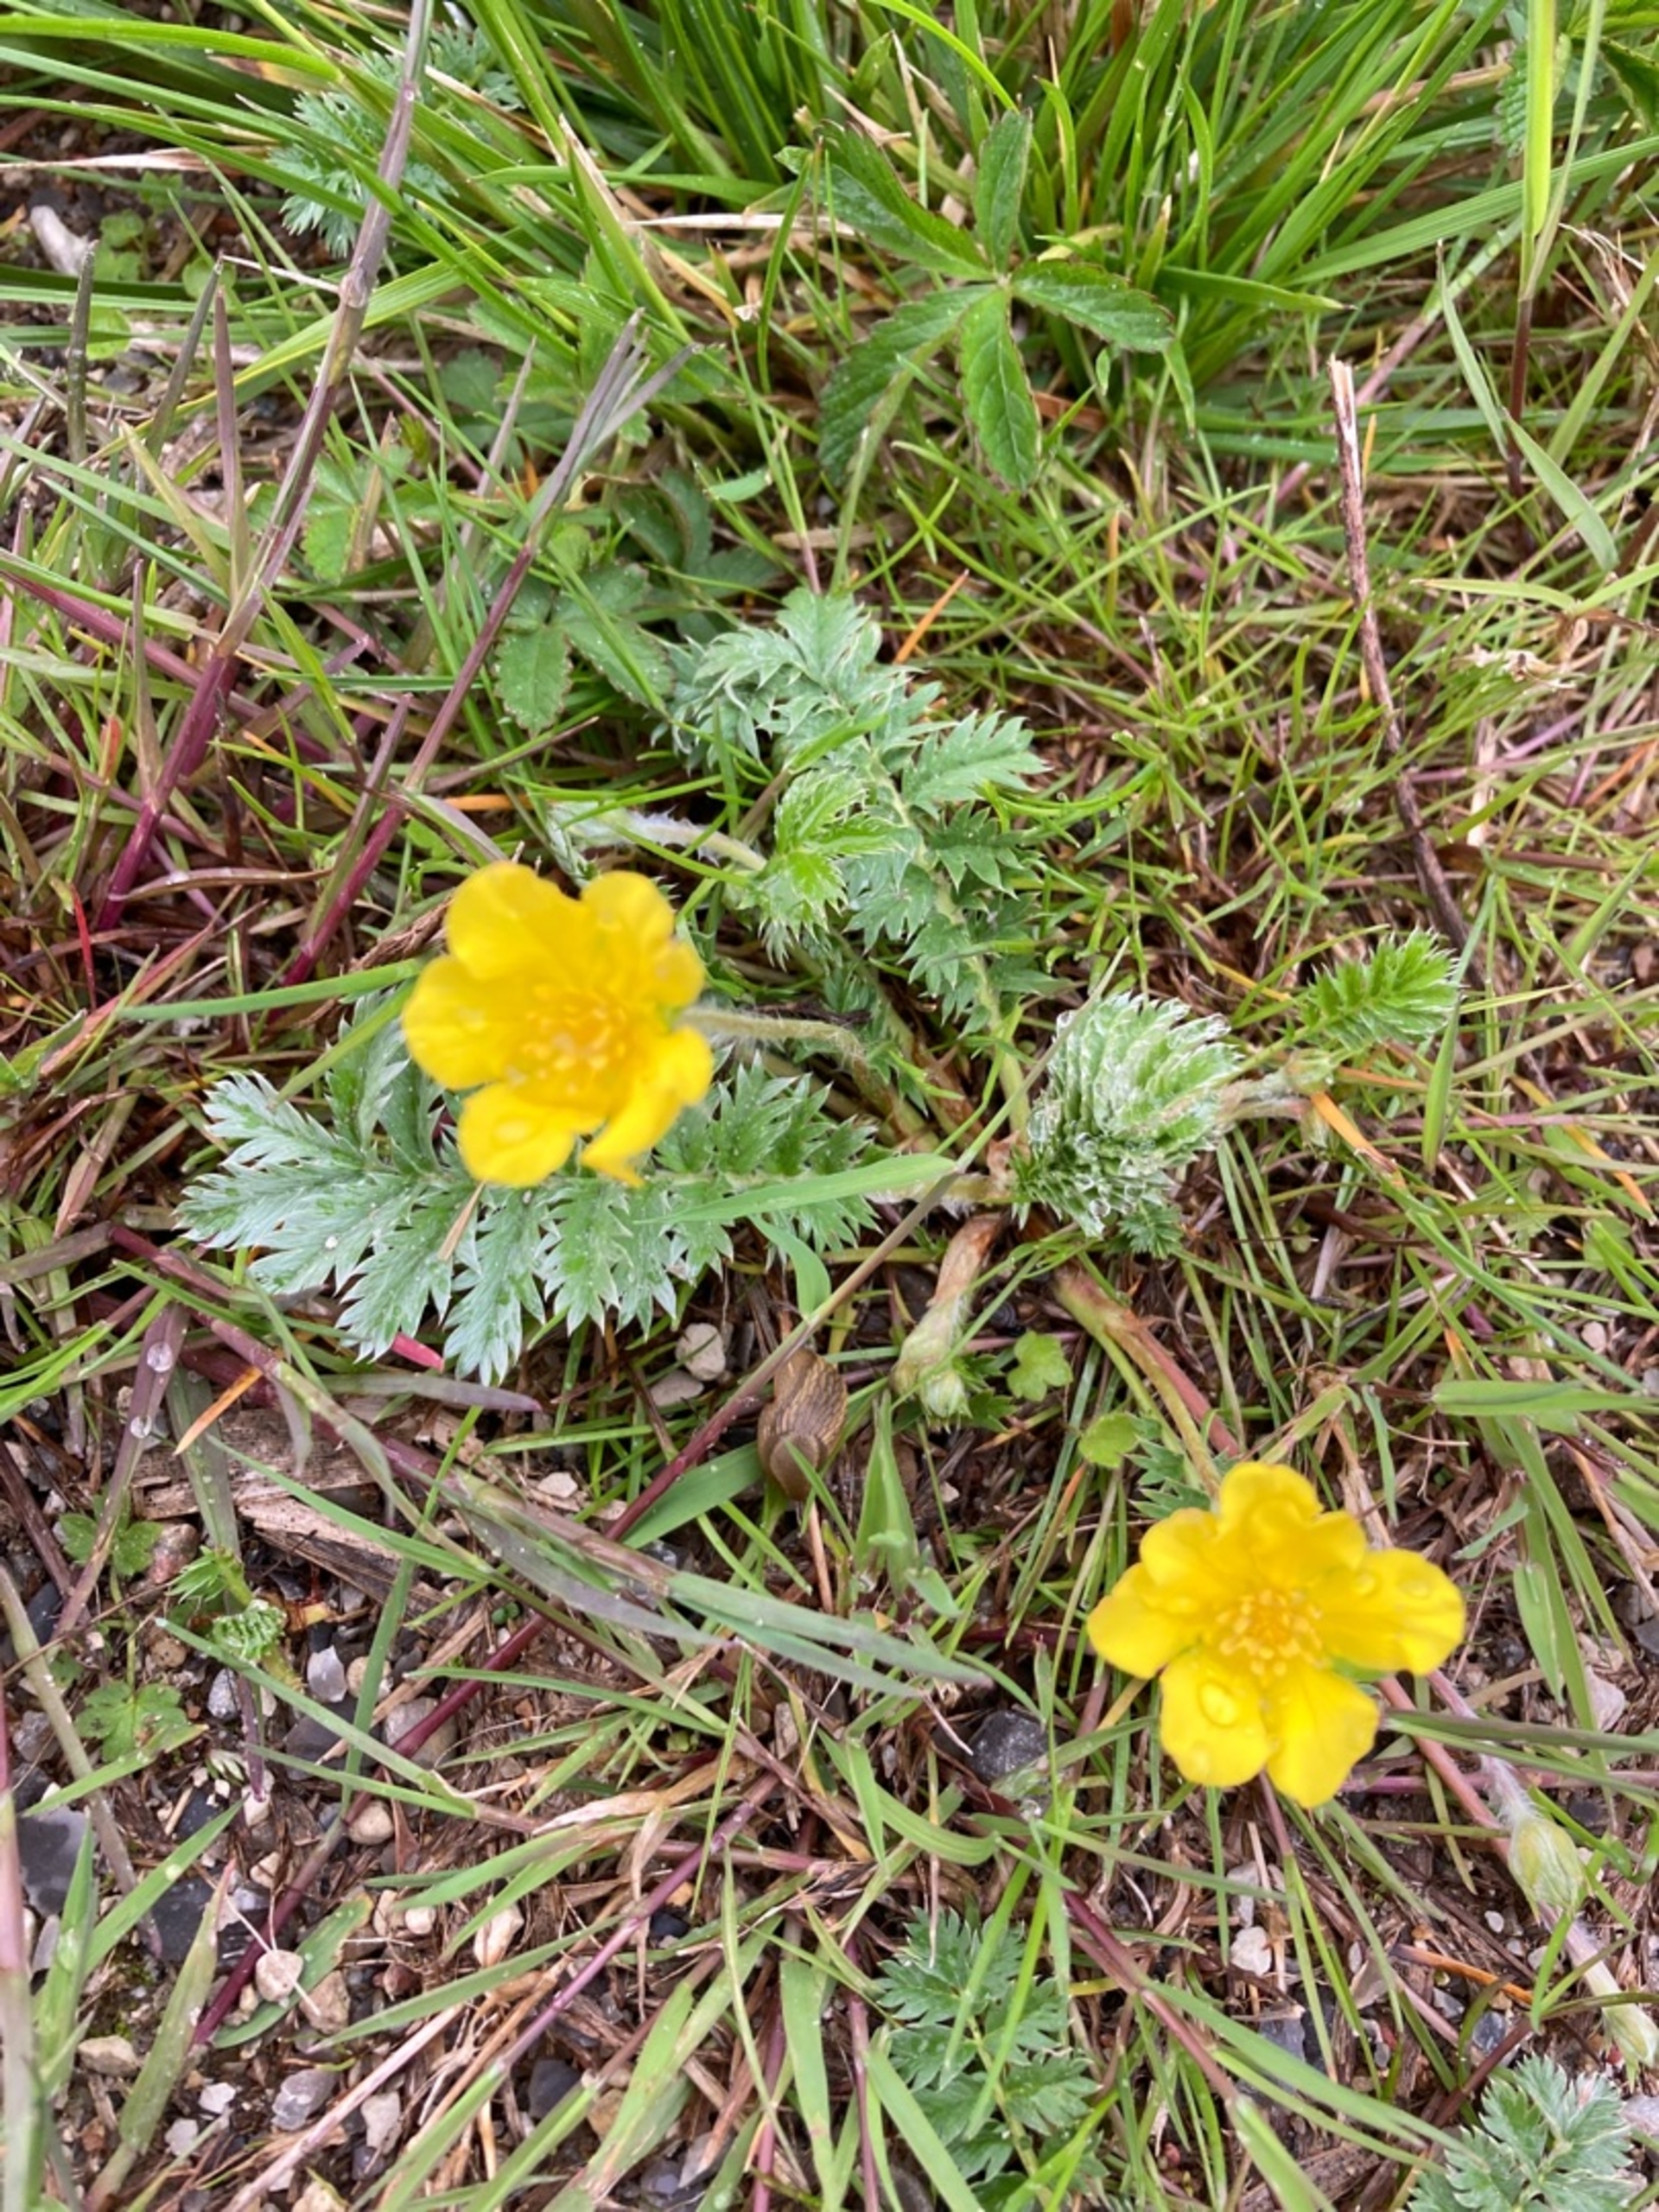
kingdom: Plantae
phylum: Tracheophyta
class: Magnoliopsida
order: Rosales
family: Rosaceae
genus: Argentina
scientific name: Argentina anserina
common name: Gåsepotentil
